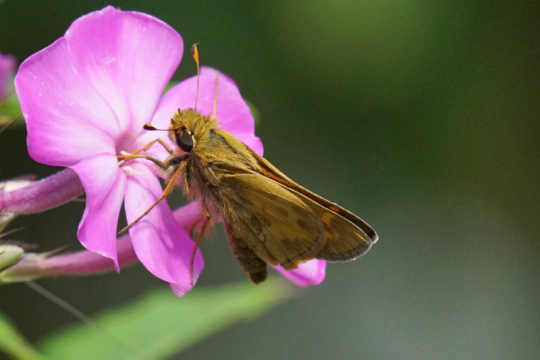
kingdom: Animalia
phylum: Arthropoda
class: Insecta
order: Lepidoptera
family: Hesperiidae
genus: Atalopedes
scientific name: Atalopedes campestris
